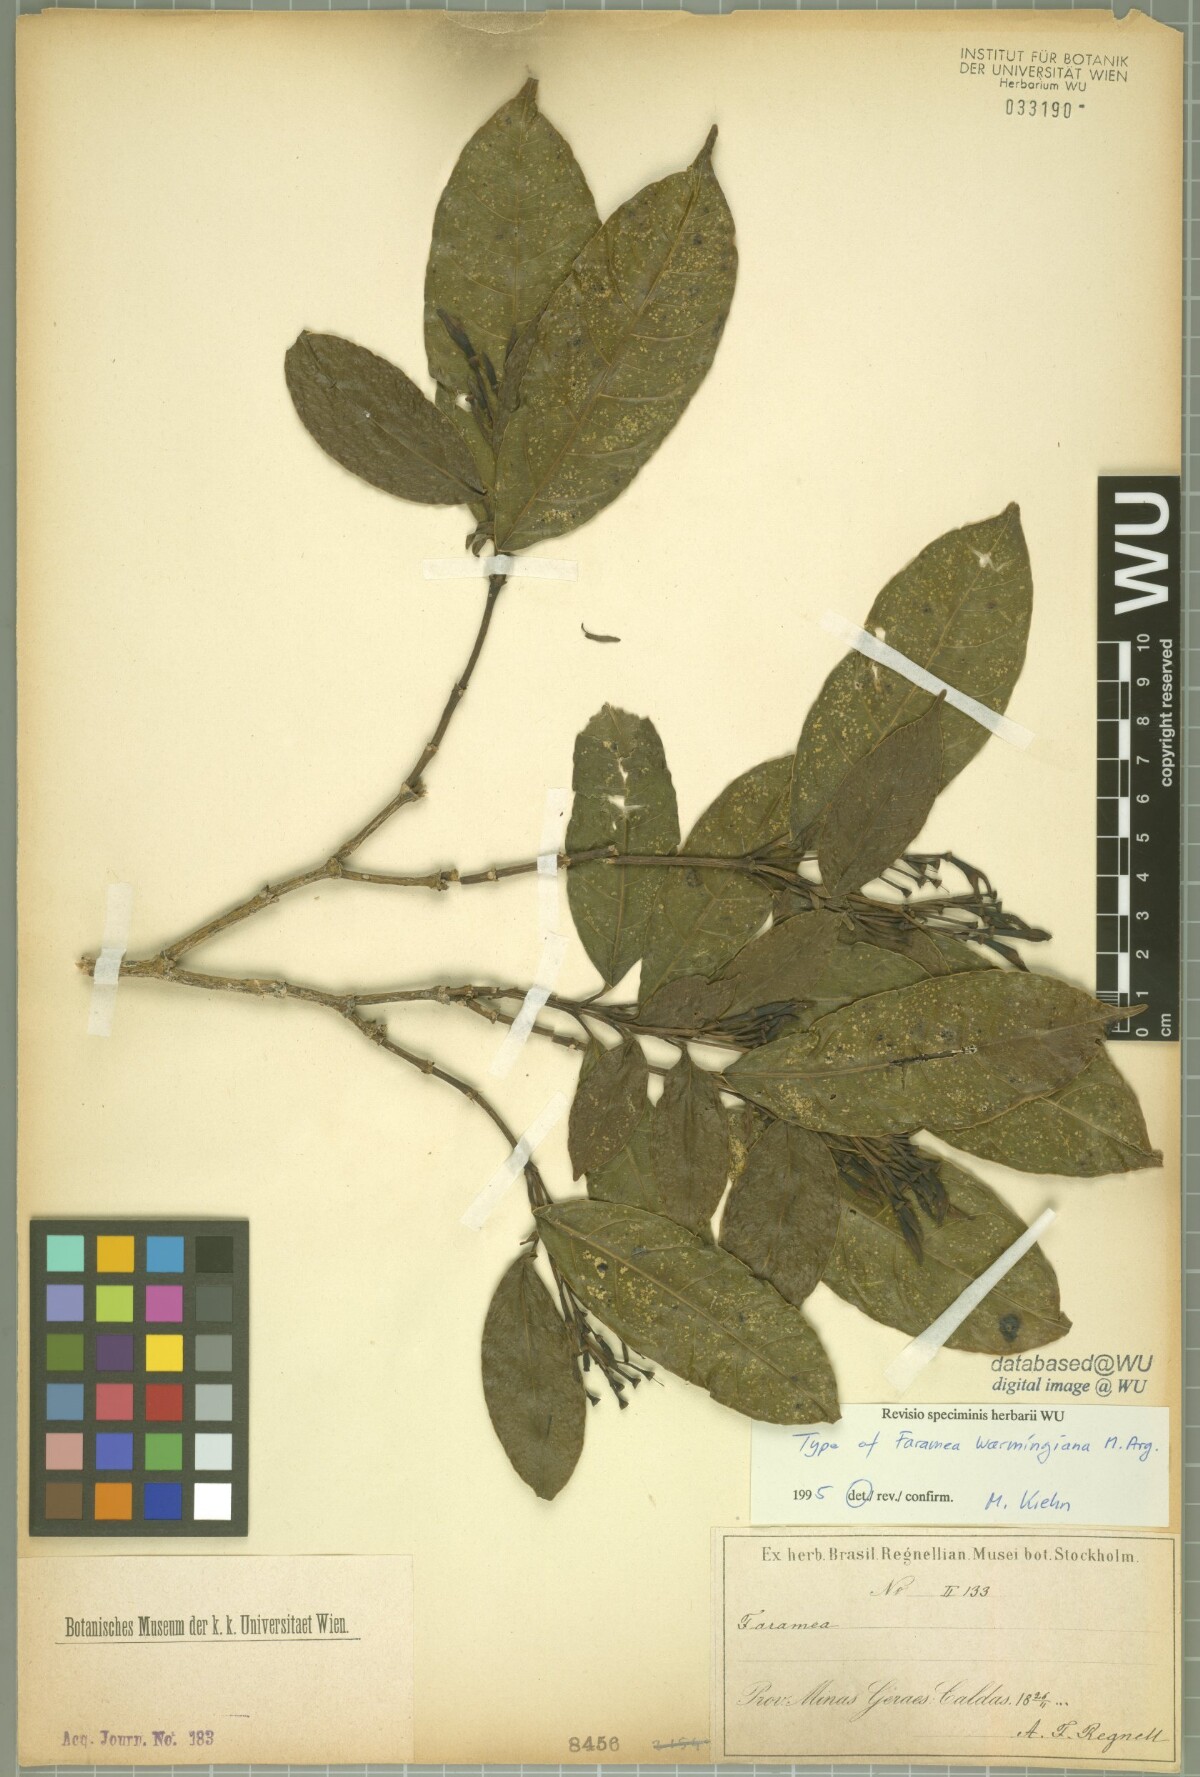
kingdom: Plantae
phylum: Tracheophyta
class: Magnoliopsida
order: Gentianales
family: Rubiaceae
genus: Faramea
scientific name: Faramea occidentalis
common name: False coffee
